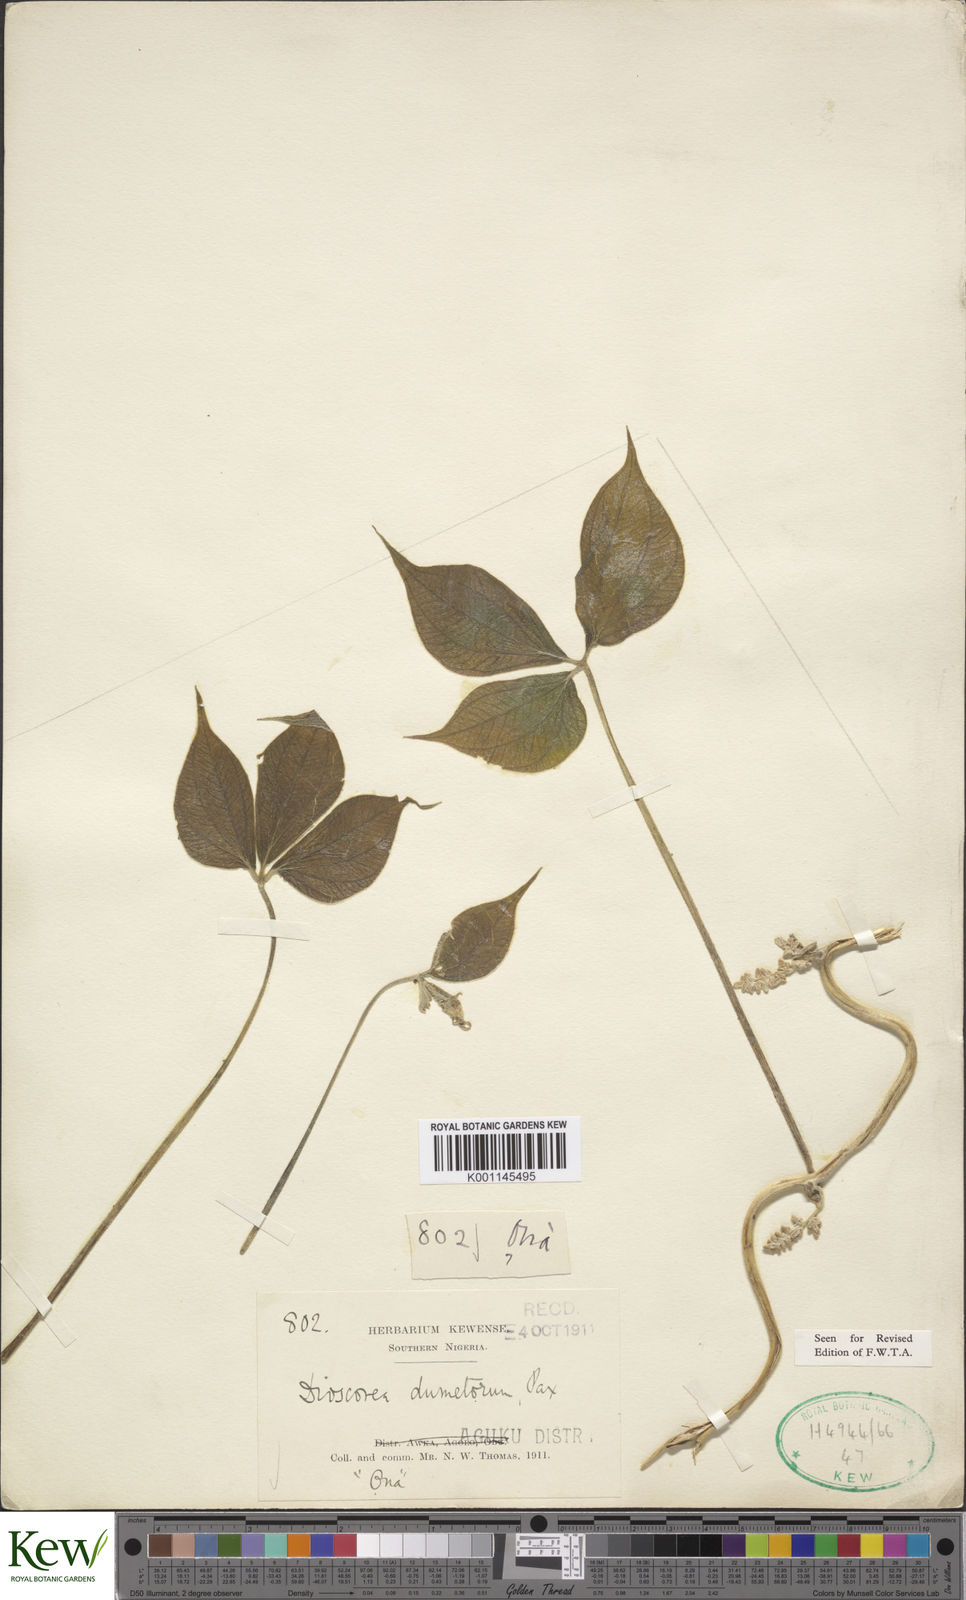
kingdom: Plantae
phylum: Tracheophyta
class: Liliopsida
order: Dioscoreales
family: Dioscoreaceae
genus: Dioscorea
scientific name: Dioscorea dumetorum
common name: African bitter yam
